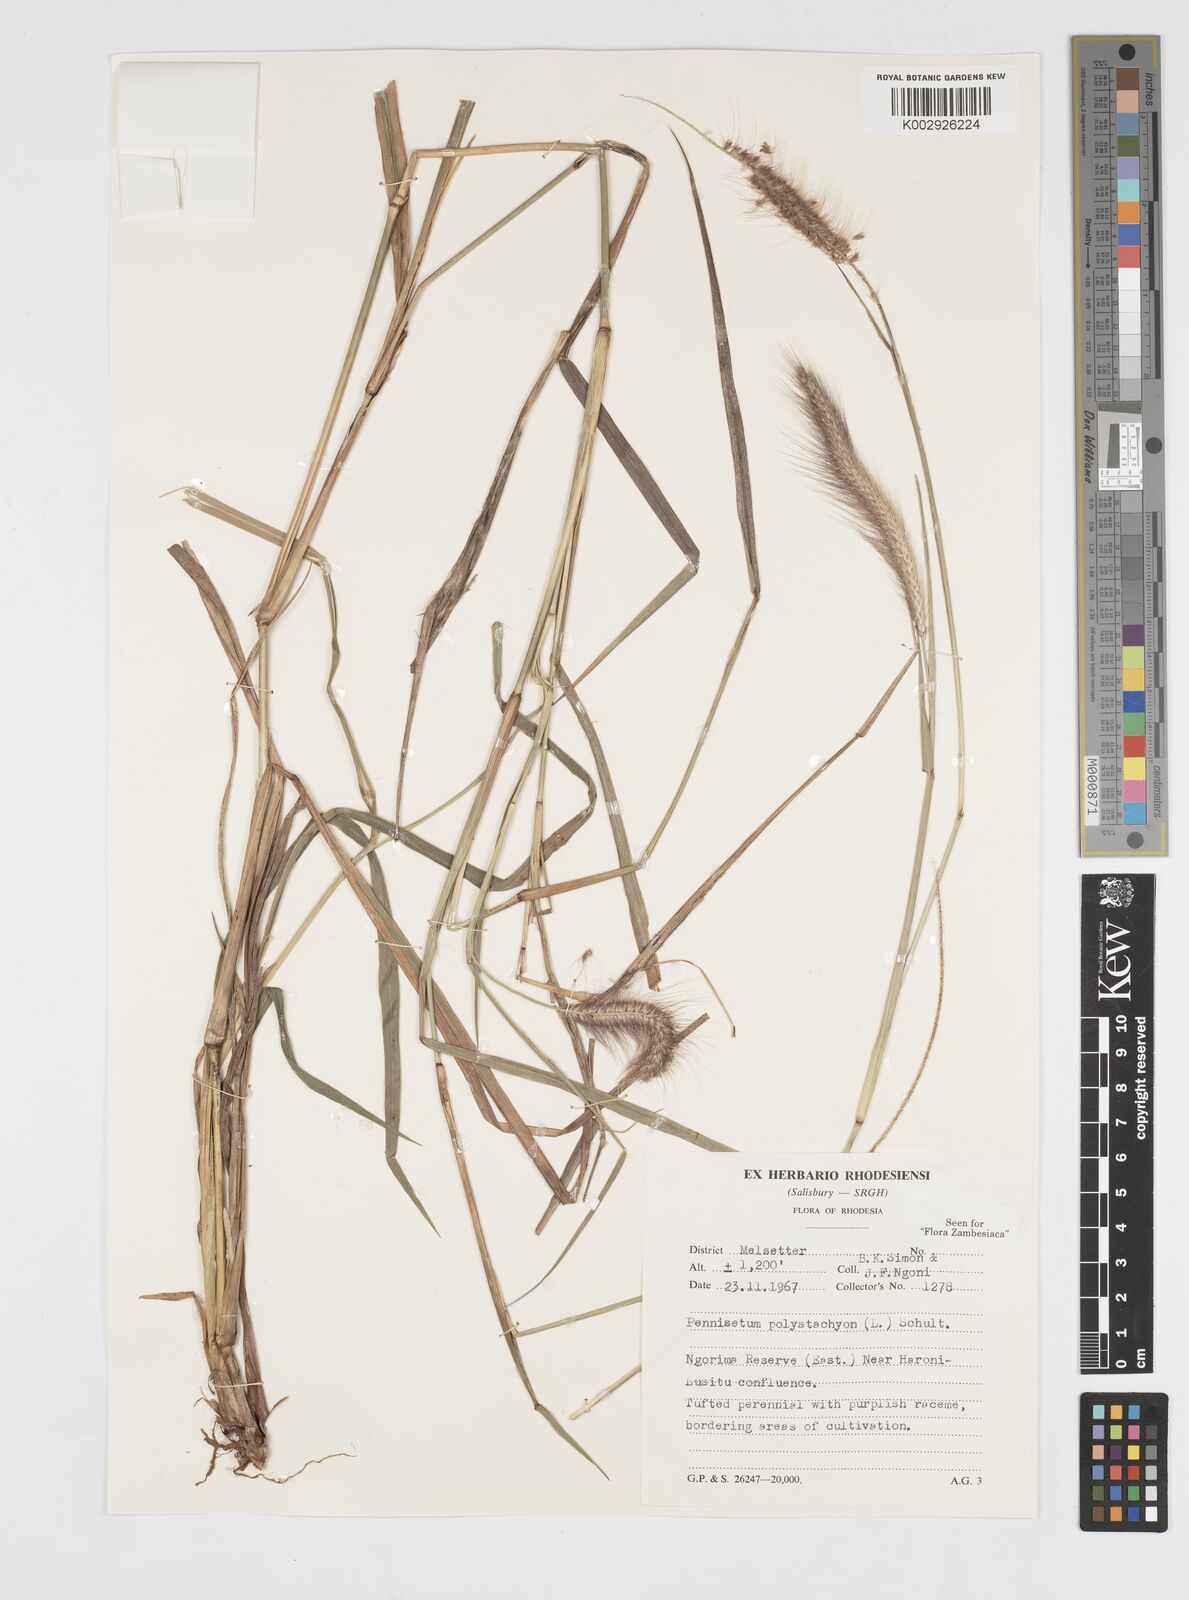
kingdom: Plantae
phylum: Tracheophyta
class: Liliopsida
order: Poales
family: Poaceae
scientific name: Poaceae
